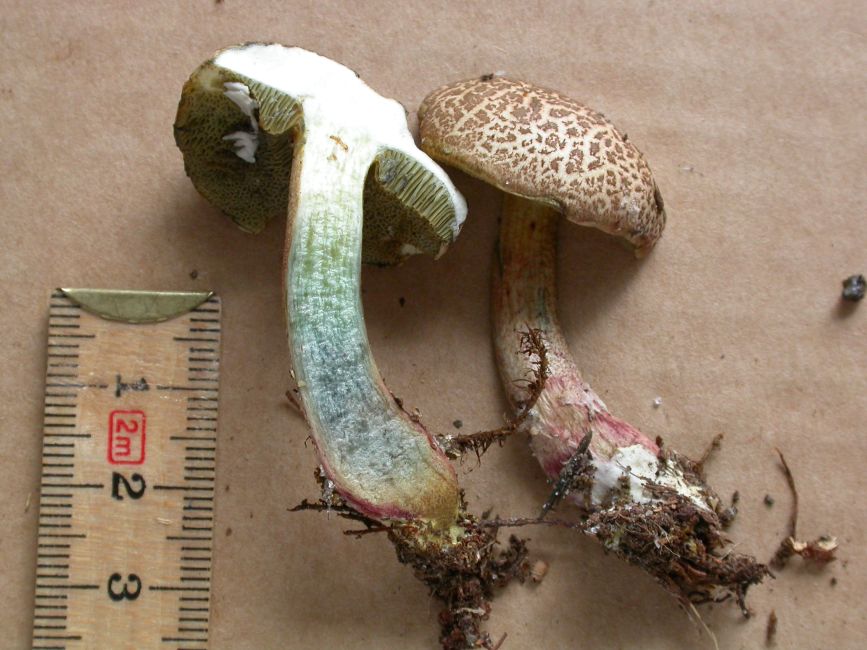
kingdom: Fungi
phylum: Basidiomycota
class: Agaricomycetes
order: Boletales
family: Boletaceae
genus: Xerocomellus
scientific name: Xerocomellus cisalpinus
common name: finsprukken rørhat
